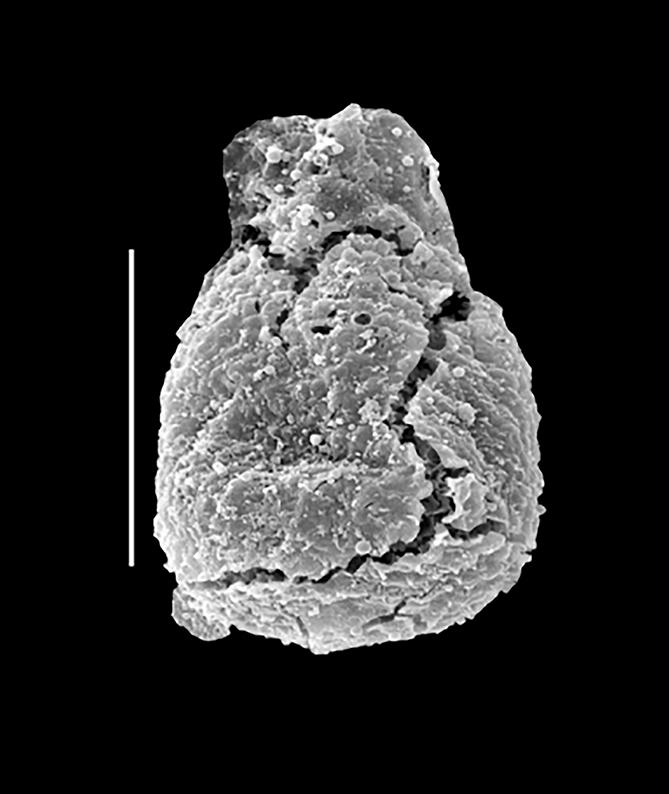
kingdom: Animalia
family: Lagenochitinidae
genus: Lagenochitina
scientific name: Lagenochitina
